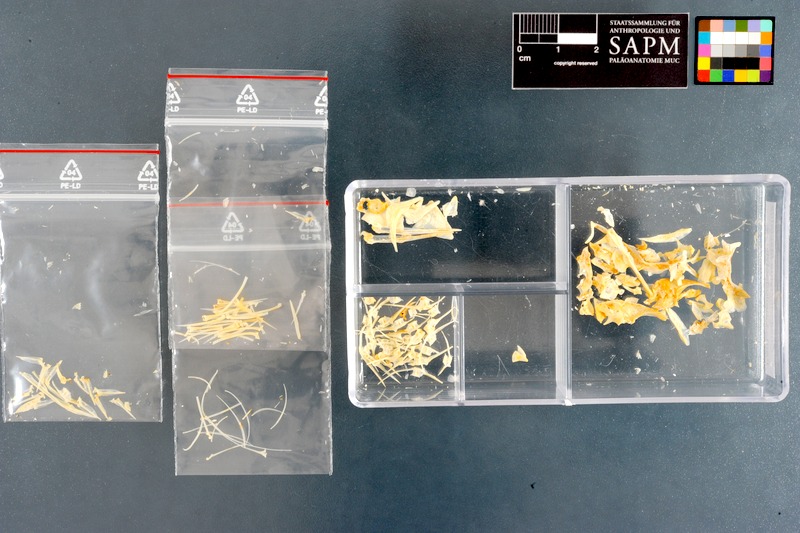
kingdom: Animalia
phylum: Chordata
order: Perciformes
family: Cheilodactylidae
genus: Cheilodactylus
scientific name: Cheilodactylus fasciatus
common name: Redfingers
